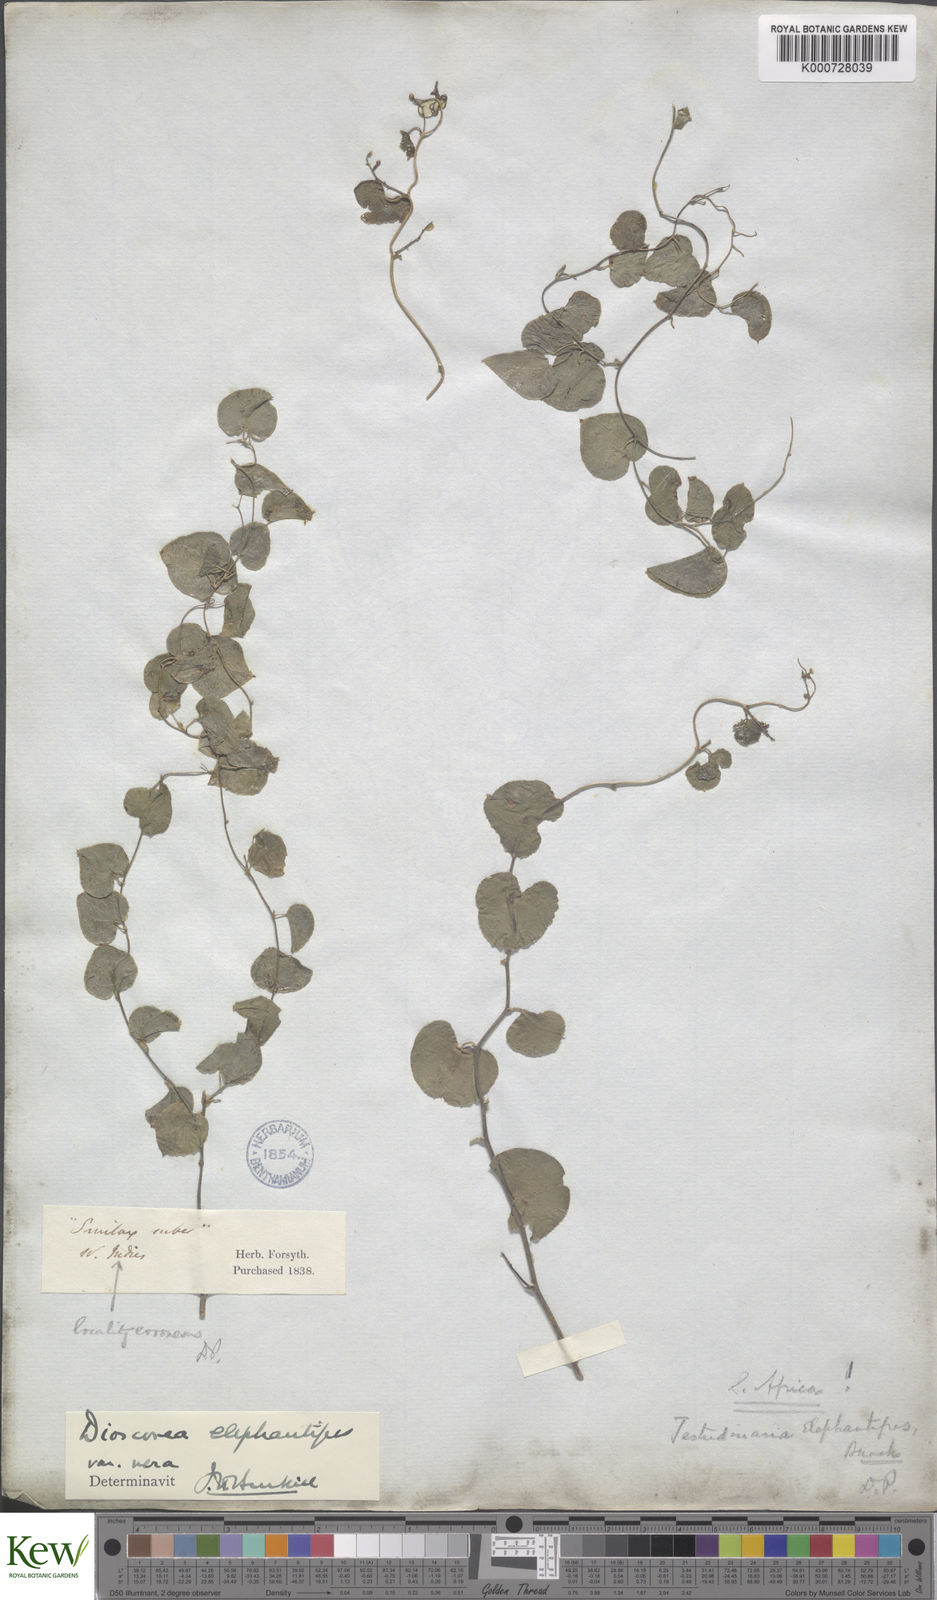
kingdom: Plantae
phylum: Tracheophyta
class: Liliopsida
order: Dioscoreales
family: Dioscoreaceae
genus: Dioscorea
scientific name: Dioscorea
